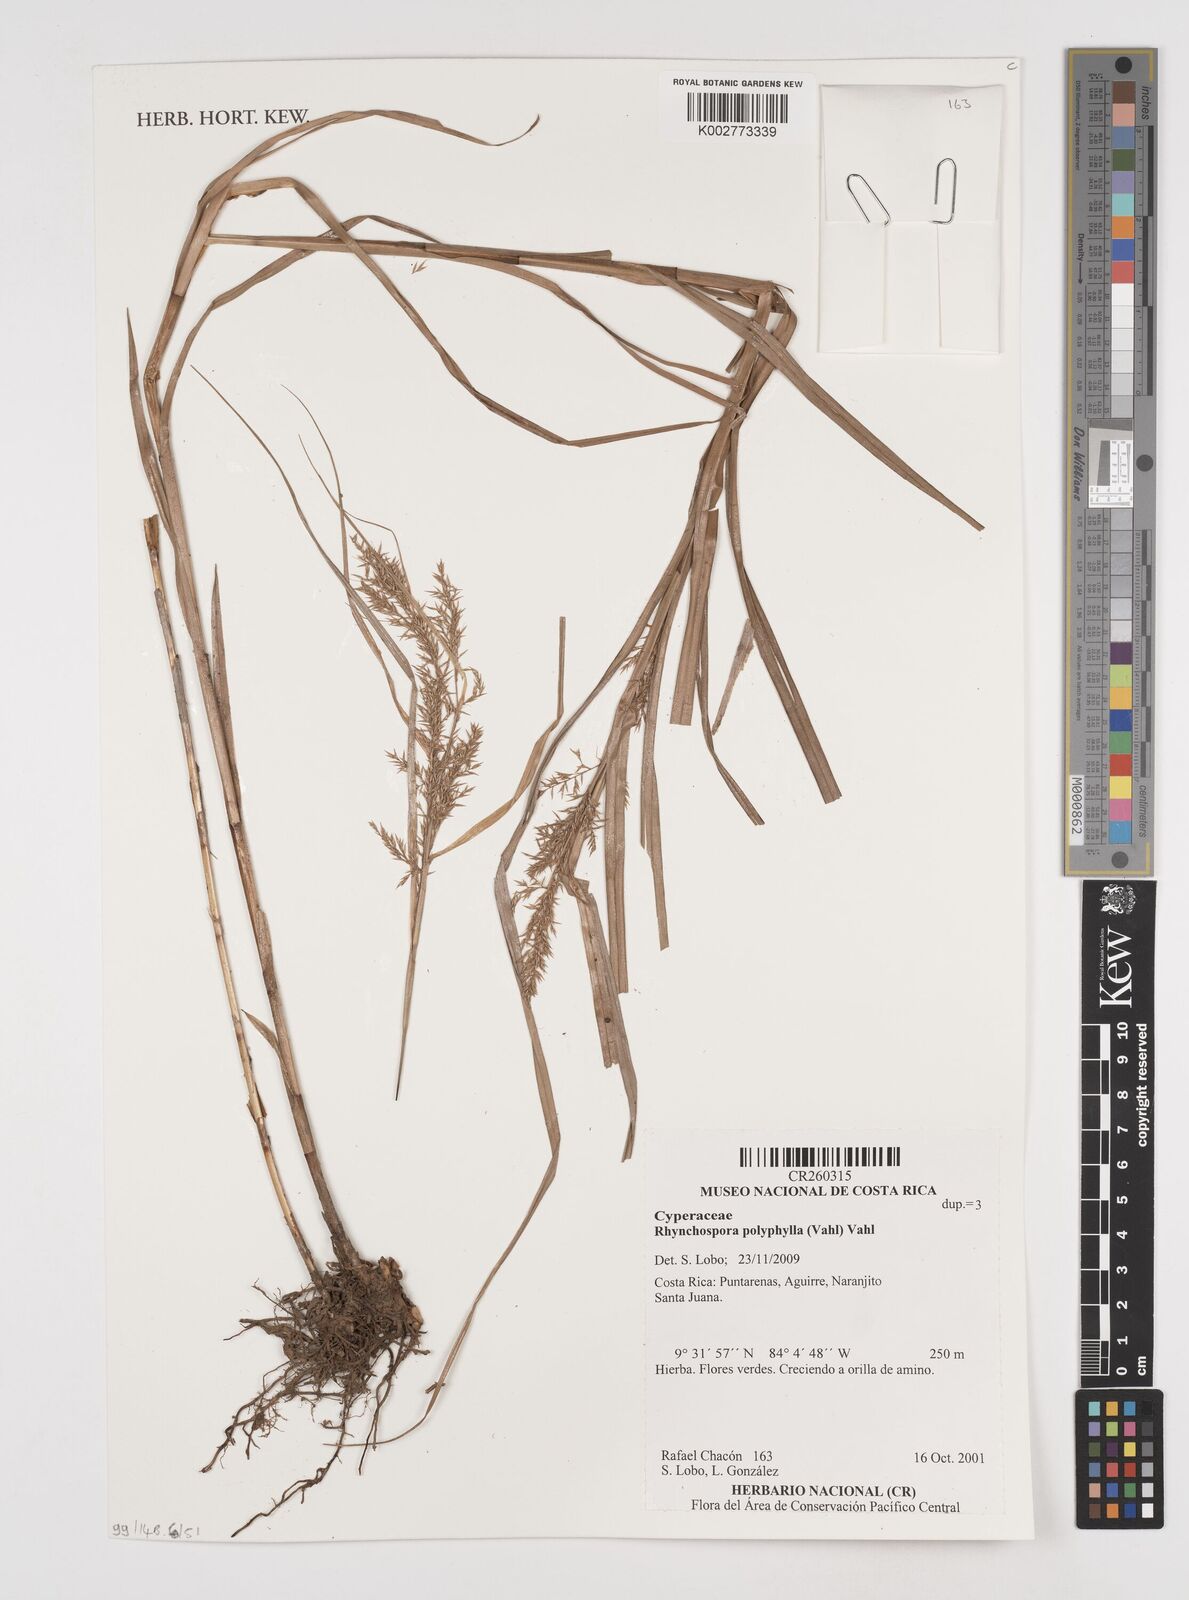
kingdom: Plantae
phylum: Tracheophyta
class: Liliopsida
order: Poales
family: Cyperaceae
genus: Rhynchospora
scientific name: Rhynchospora polyphylla
